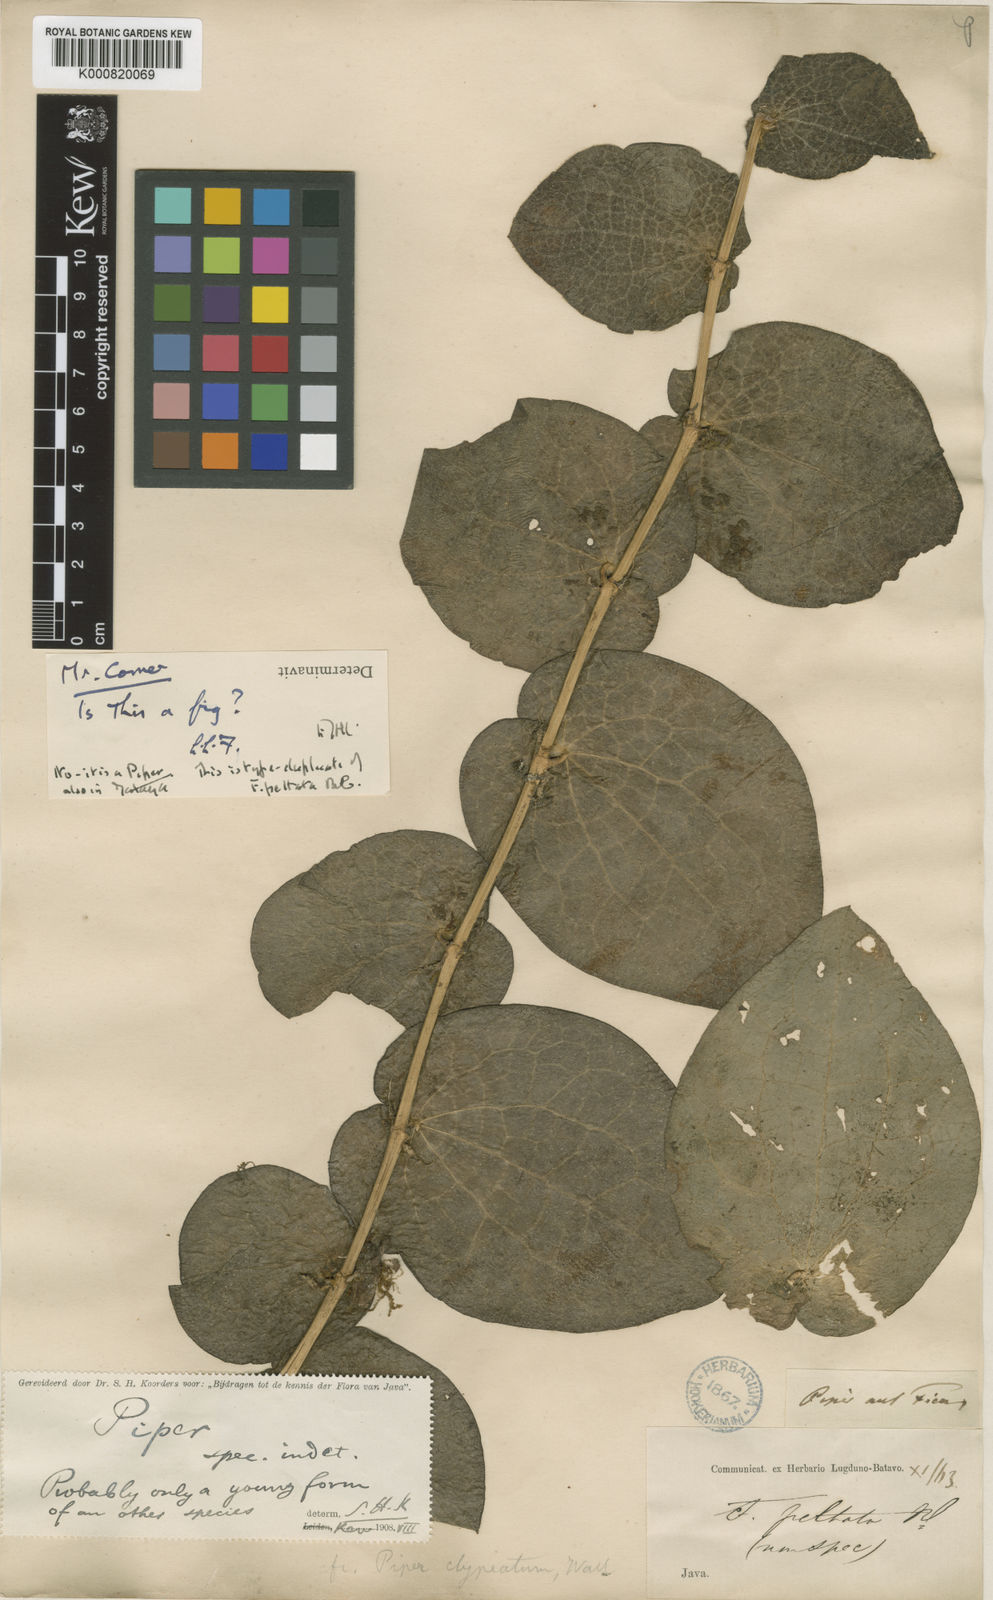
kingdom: Plantae
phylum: Tracheophyta
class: Magnoliopsida
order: Piperales
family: Piperaceae
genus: Piper
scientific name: Piper
